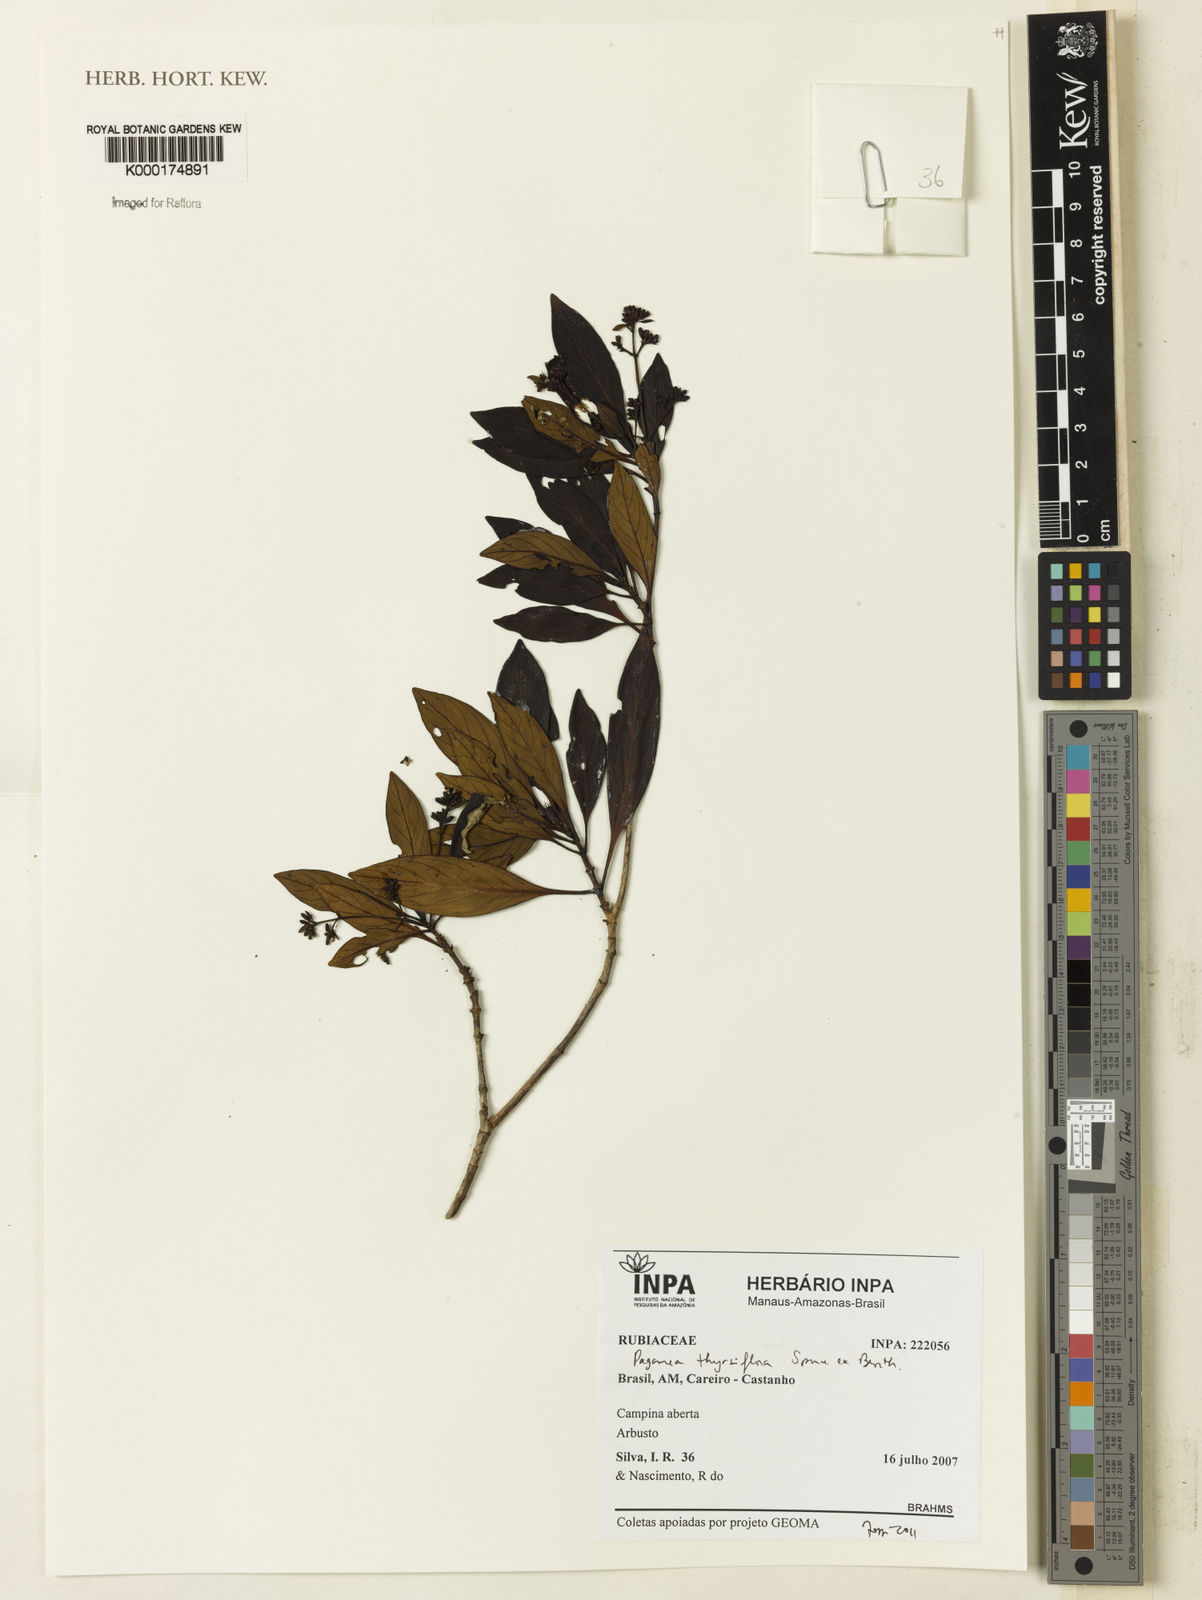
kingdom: Plantae
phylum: Tracheophyta
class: Magnoliopsida
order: Gentianales
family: Rubiaceae
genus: Pagamea
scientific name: Pagamea thyrsiflora
